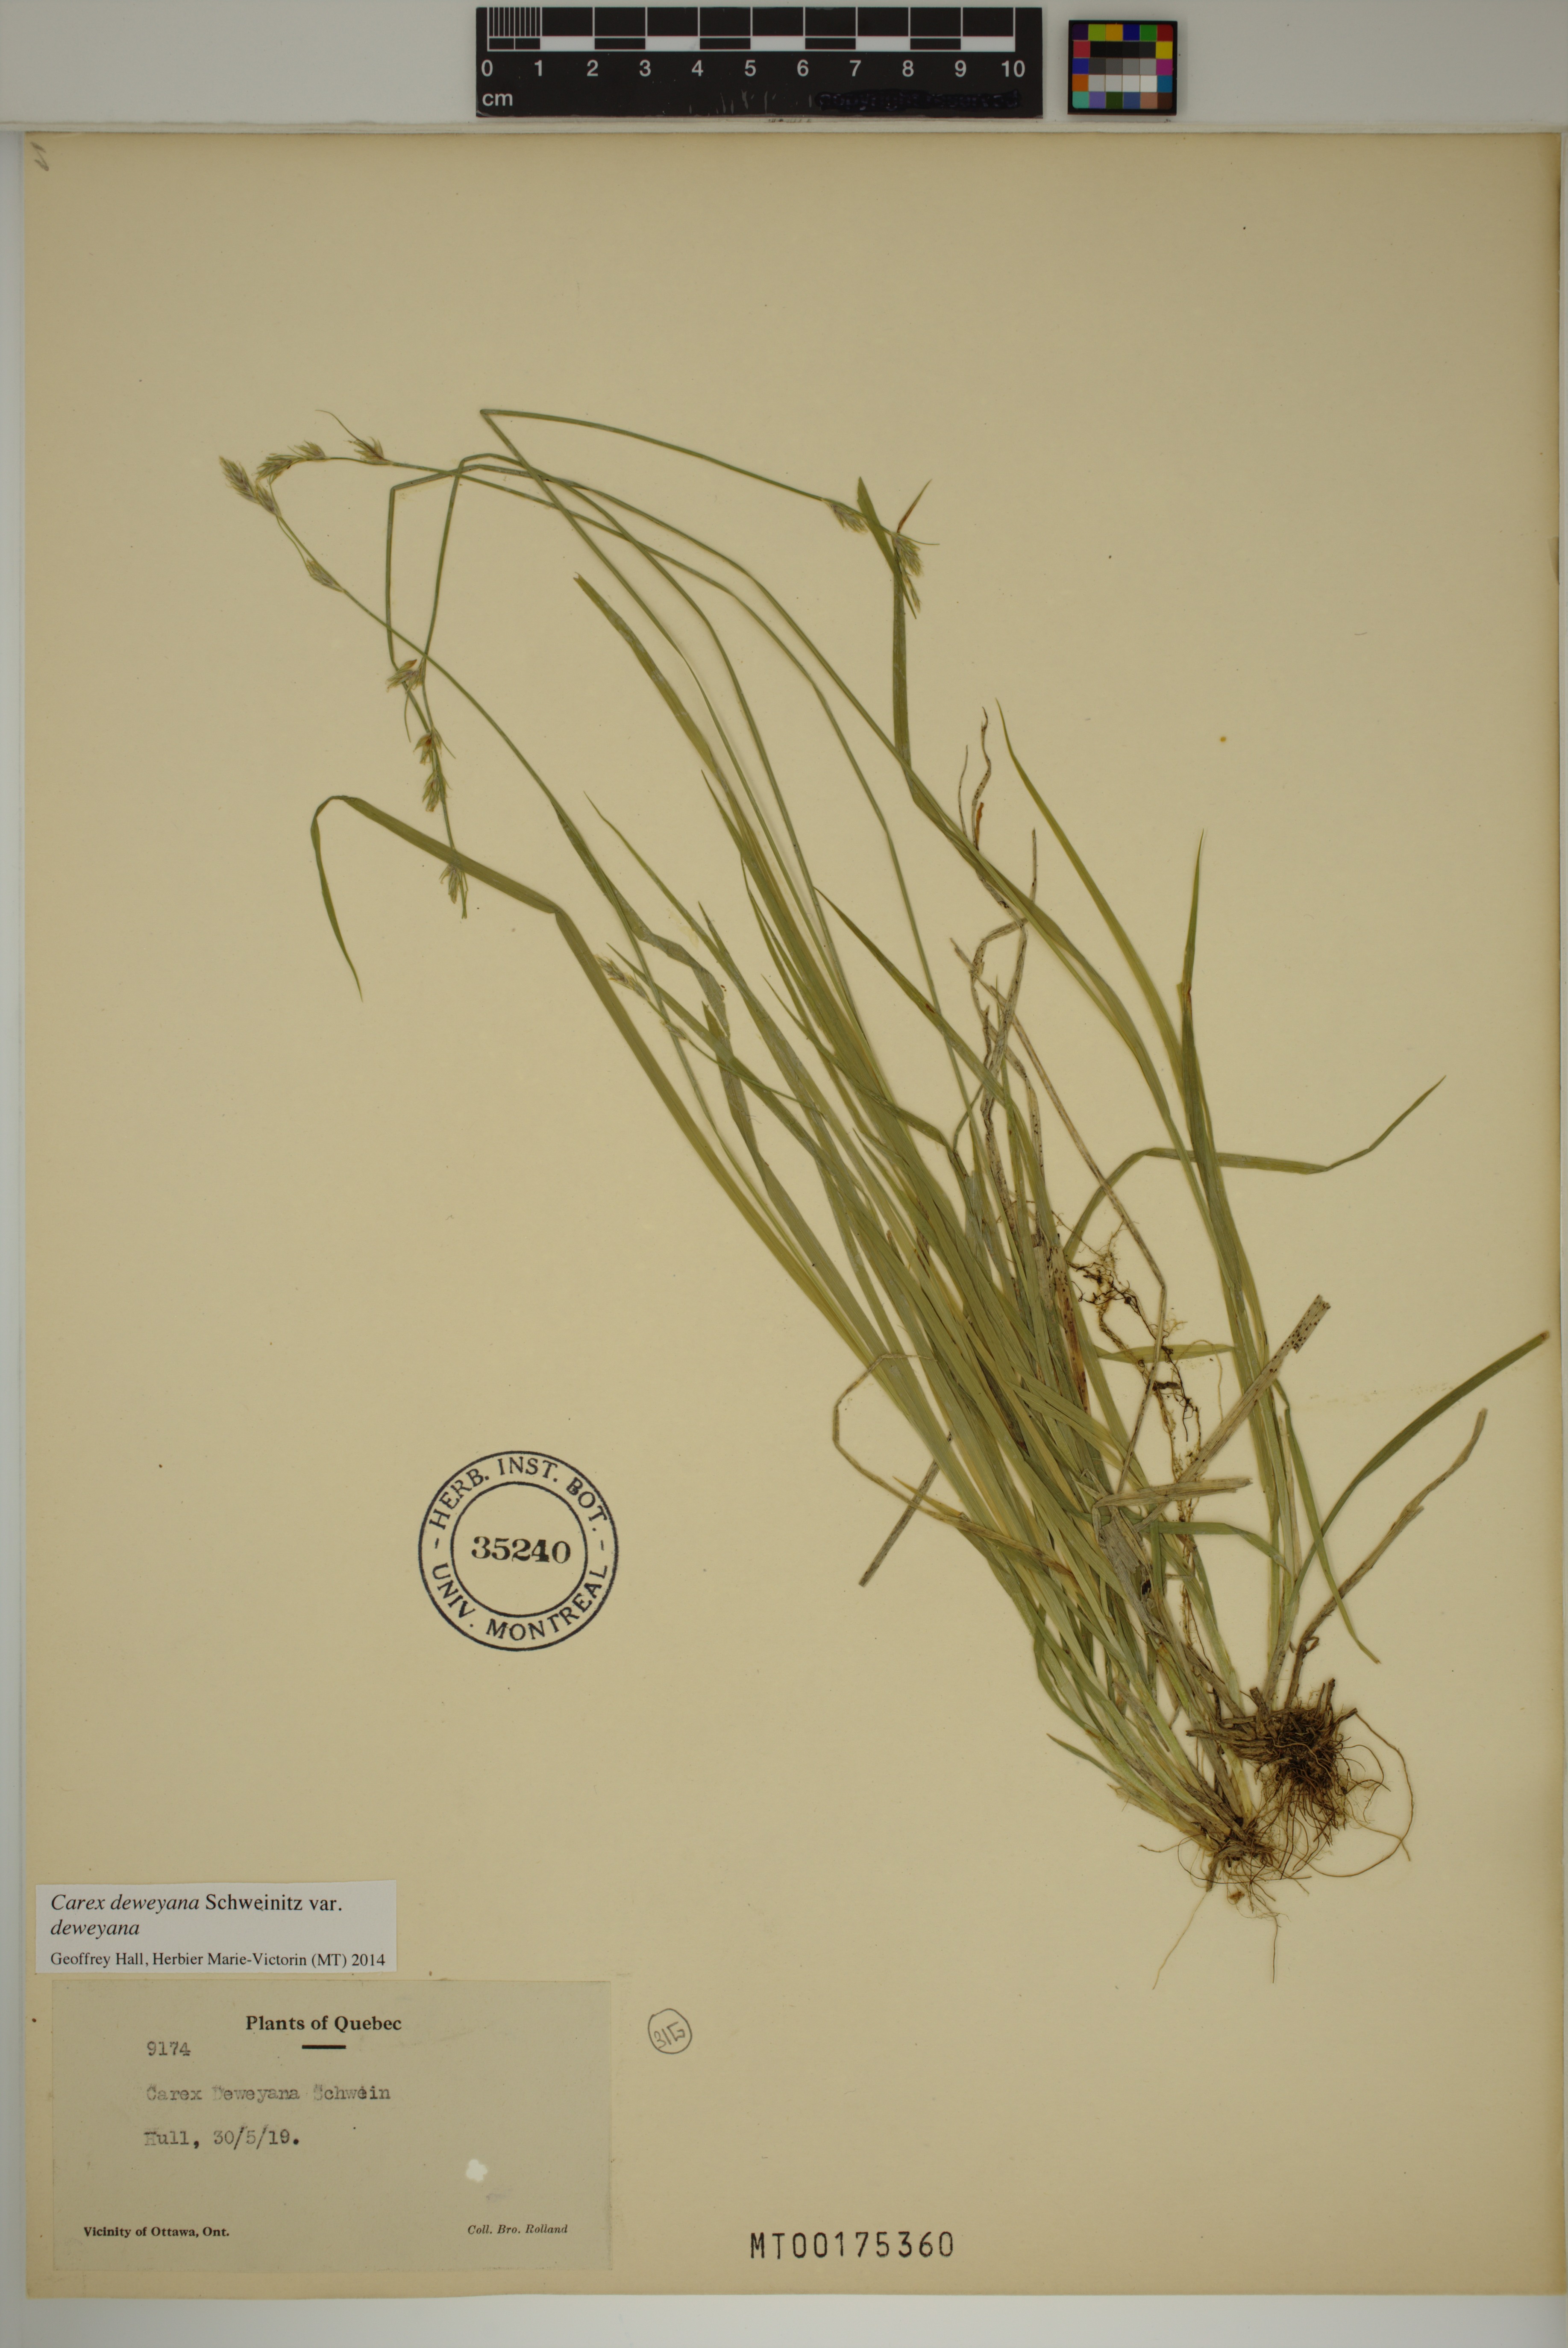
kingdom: Plantae
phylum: Tracheophyta
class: Liliopsida
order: Poales
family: Cyperaceae
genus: Carex
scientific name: Carex deweyana
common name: Dewey's sedge
